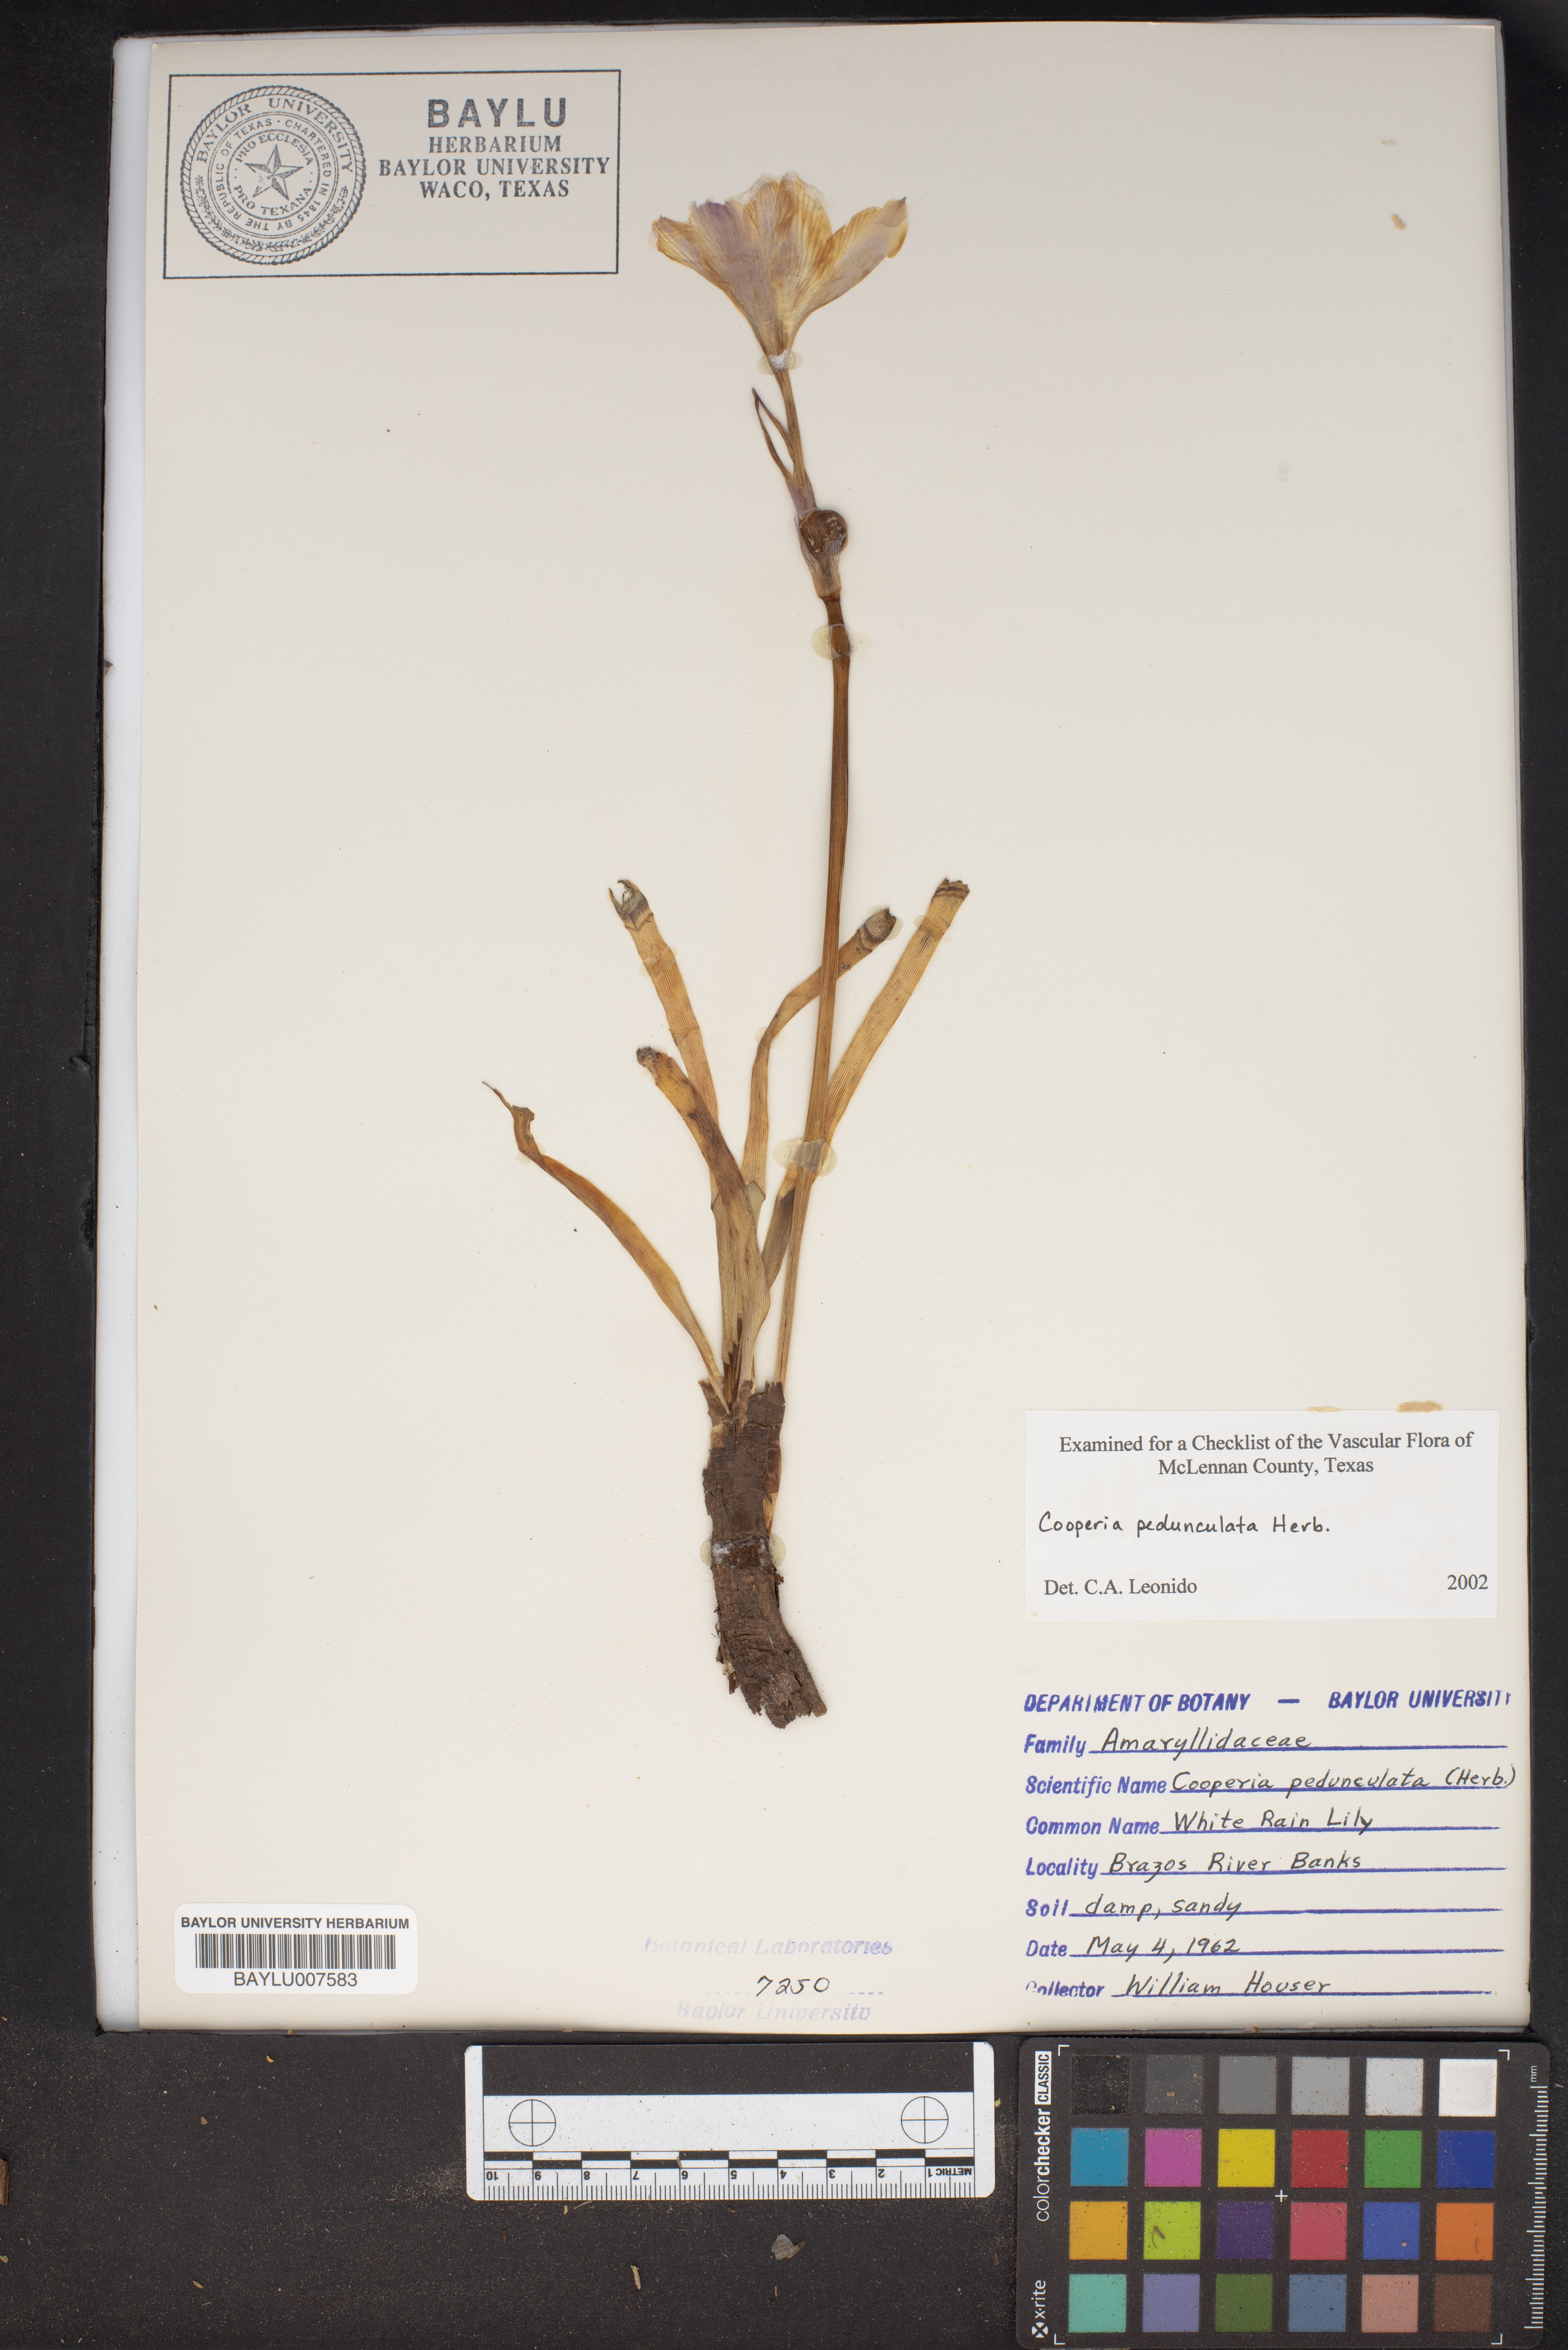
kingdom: Plantae
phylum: Tracheophyta
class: Liliopsida
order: Asparagales
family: Amaryllidaceae
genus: Zephyranthes
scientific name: Zephyranthes drummondii
